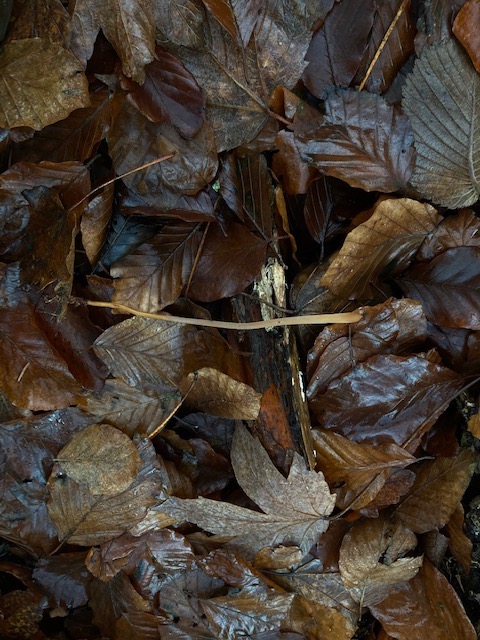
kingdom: Fungi
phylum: Basidiomycota
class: Agaricomycetes
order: Agaricales
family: Typhulaceae
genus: Typhula
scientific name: Typhula fistulosa
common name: pibet rørkølle
